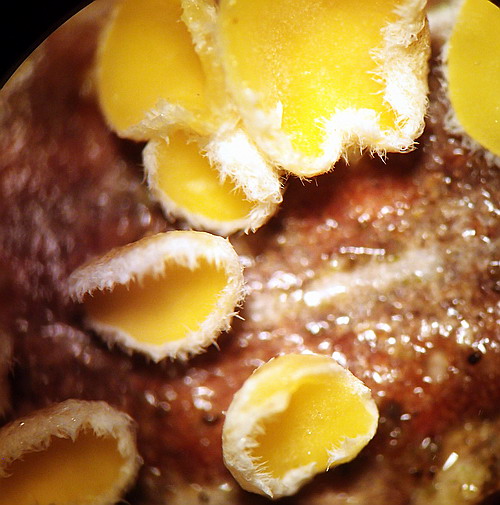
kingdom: Fungi
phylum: Ascomycota
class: Leotiomycetes
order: Helotiales
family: Lachnaceae
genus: Perrotia
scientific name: Perrotia gallica
